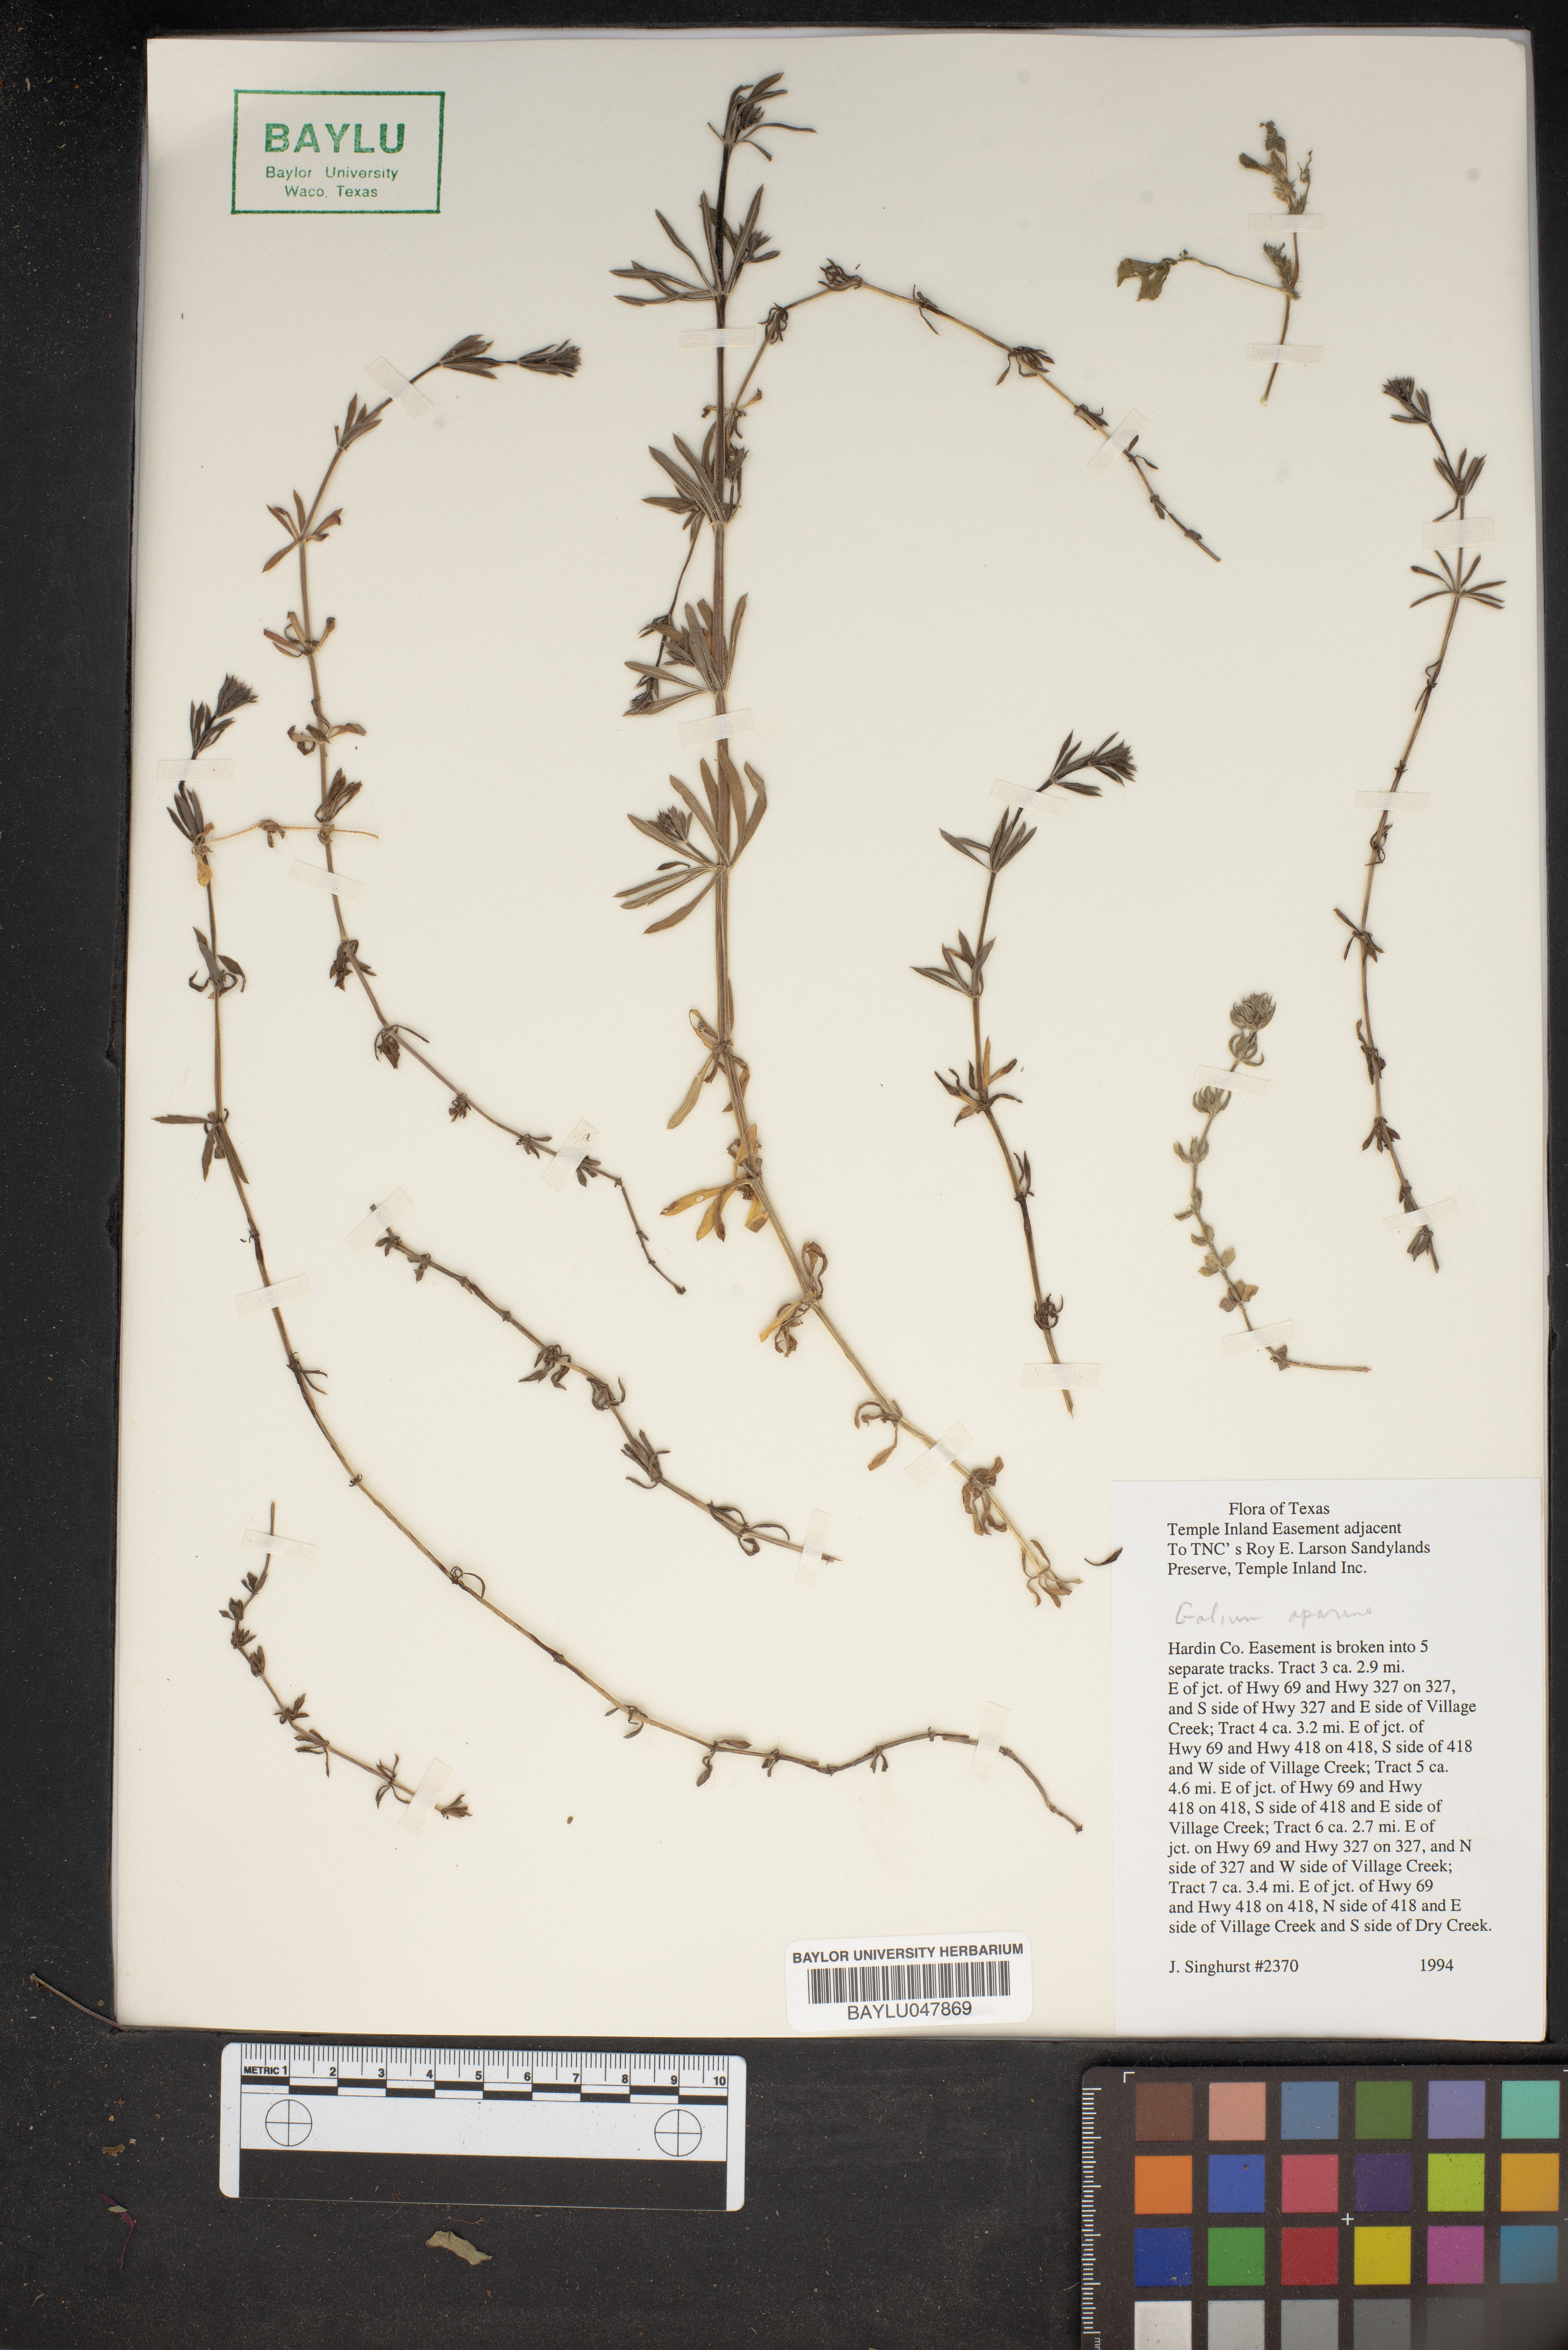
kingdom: Plantae
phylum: Tracheophyta
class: Magnoliopsida
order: Gentianales
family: Rubiaceae
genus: Galium
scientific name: Galium aparine
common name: Cleavers
